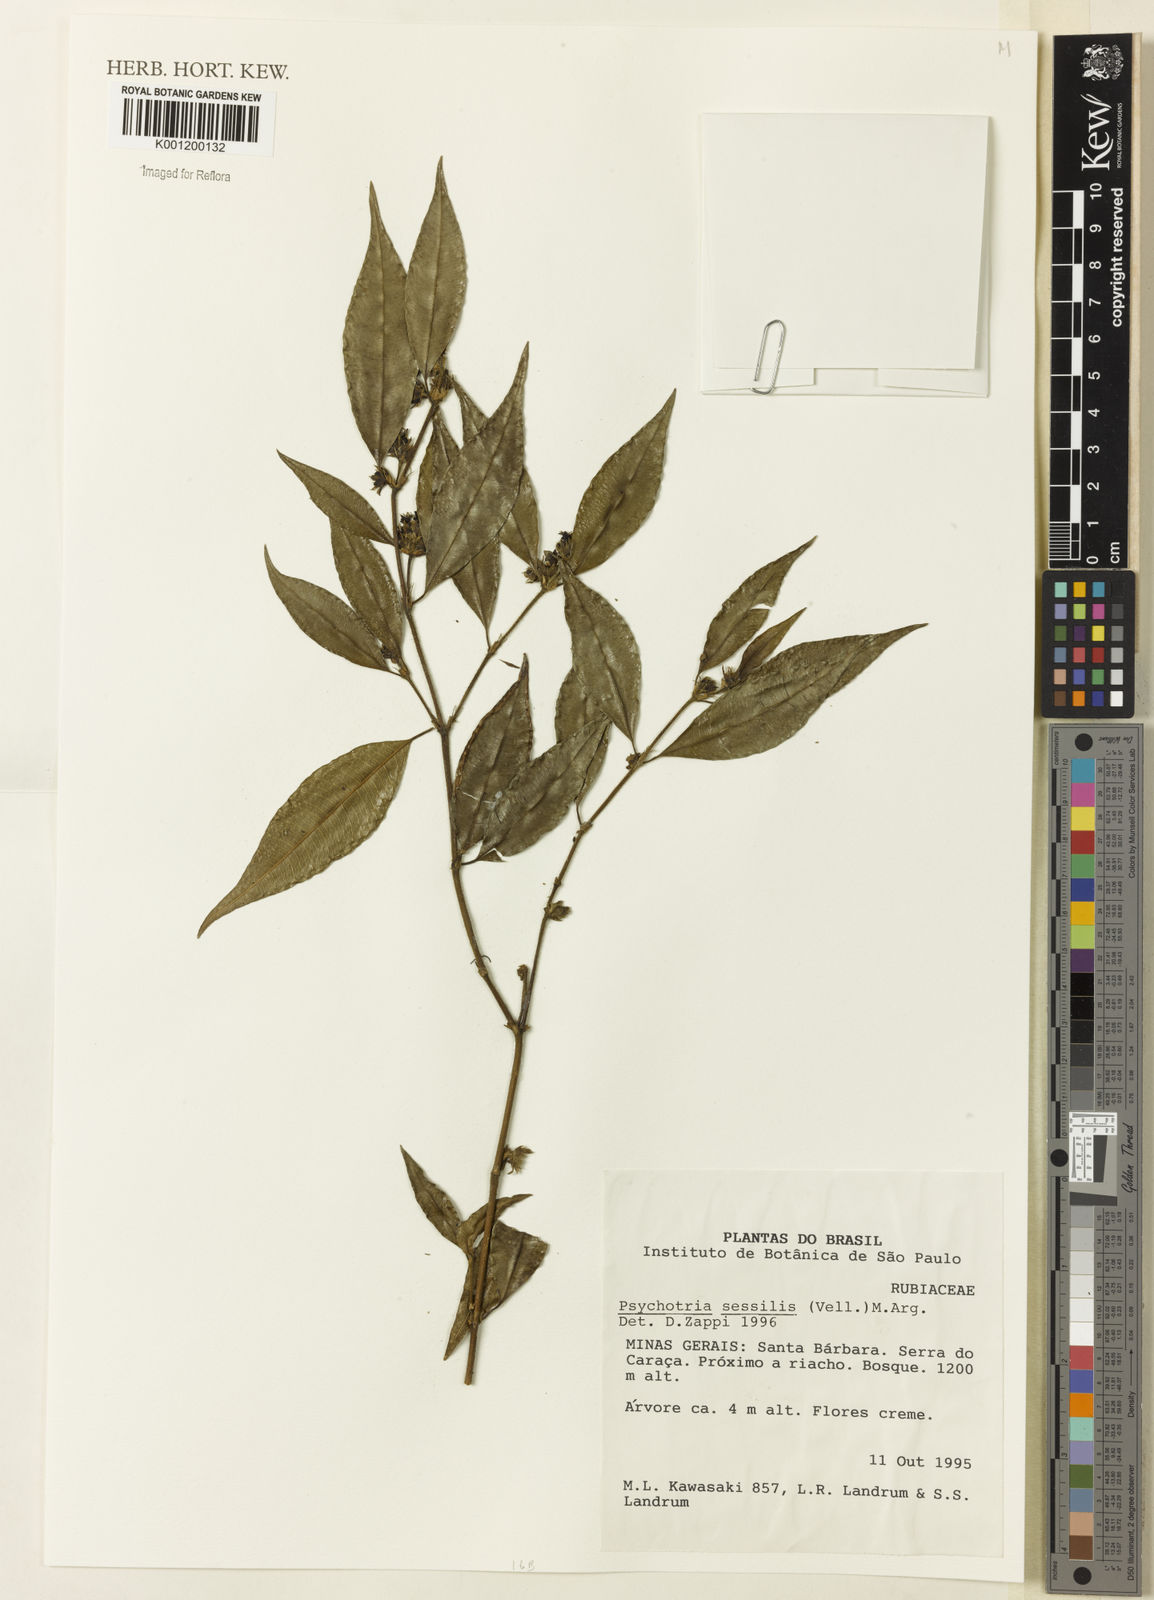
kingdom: Plantae
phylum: Tracheophyta
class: Magnoliopsida
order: Gentianales
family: Rubiaceae
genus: Rudgea
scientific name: Rudgea sessilis
